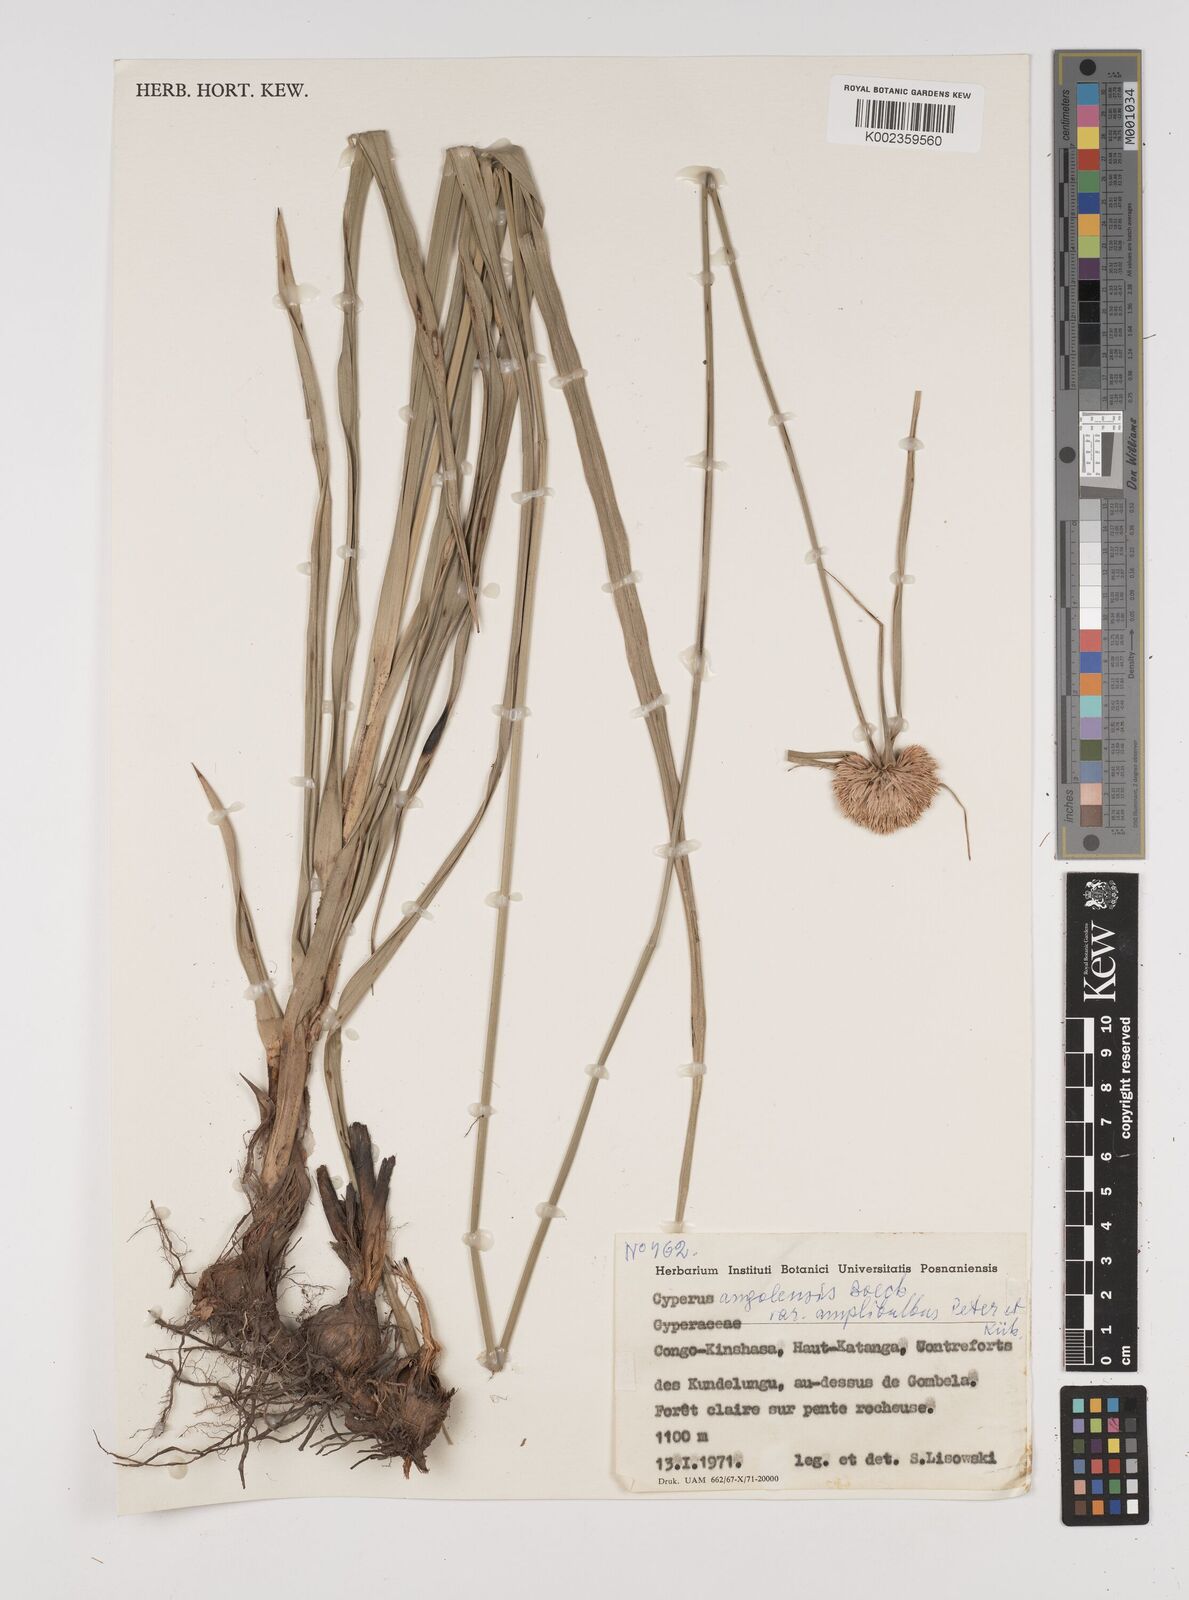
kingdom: Plantae
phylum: Tracheophyta
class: Liliopsida
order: Poales
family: Cyperaceae
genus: Cyperus
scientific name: Cyperus angolensis
